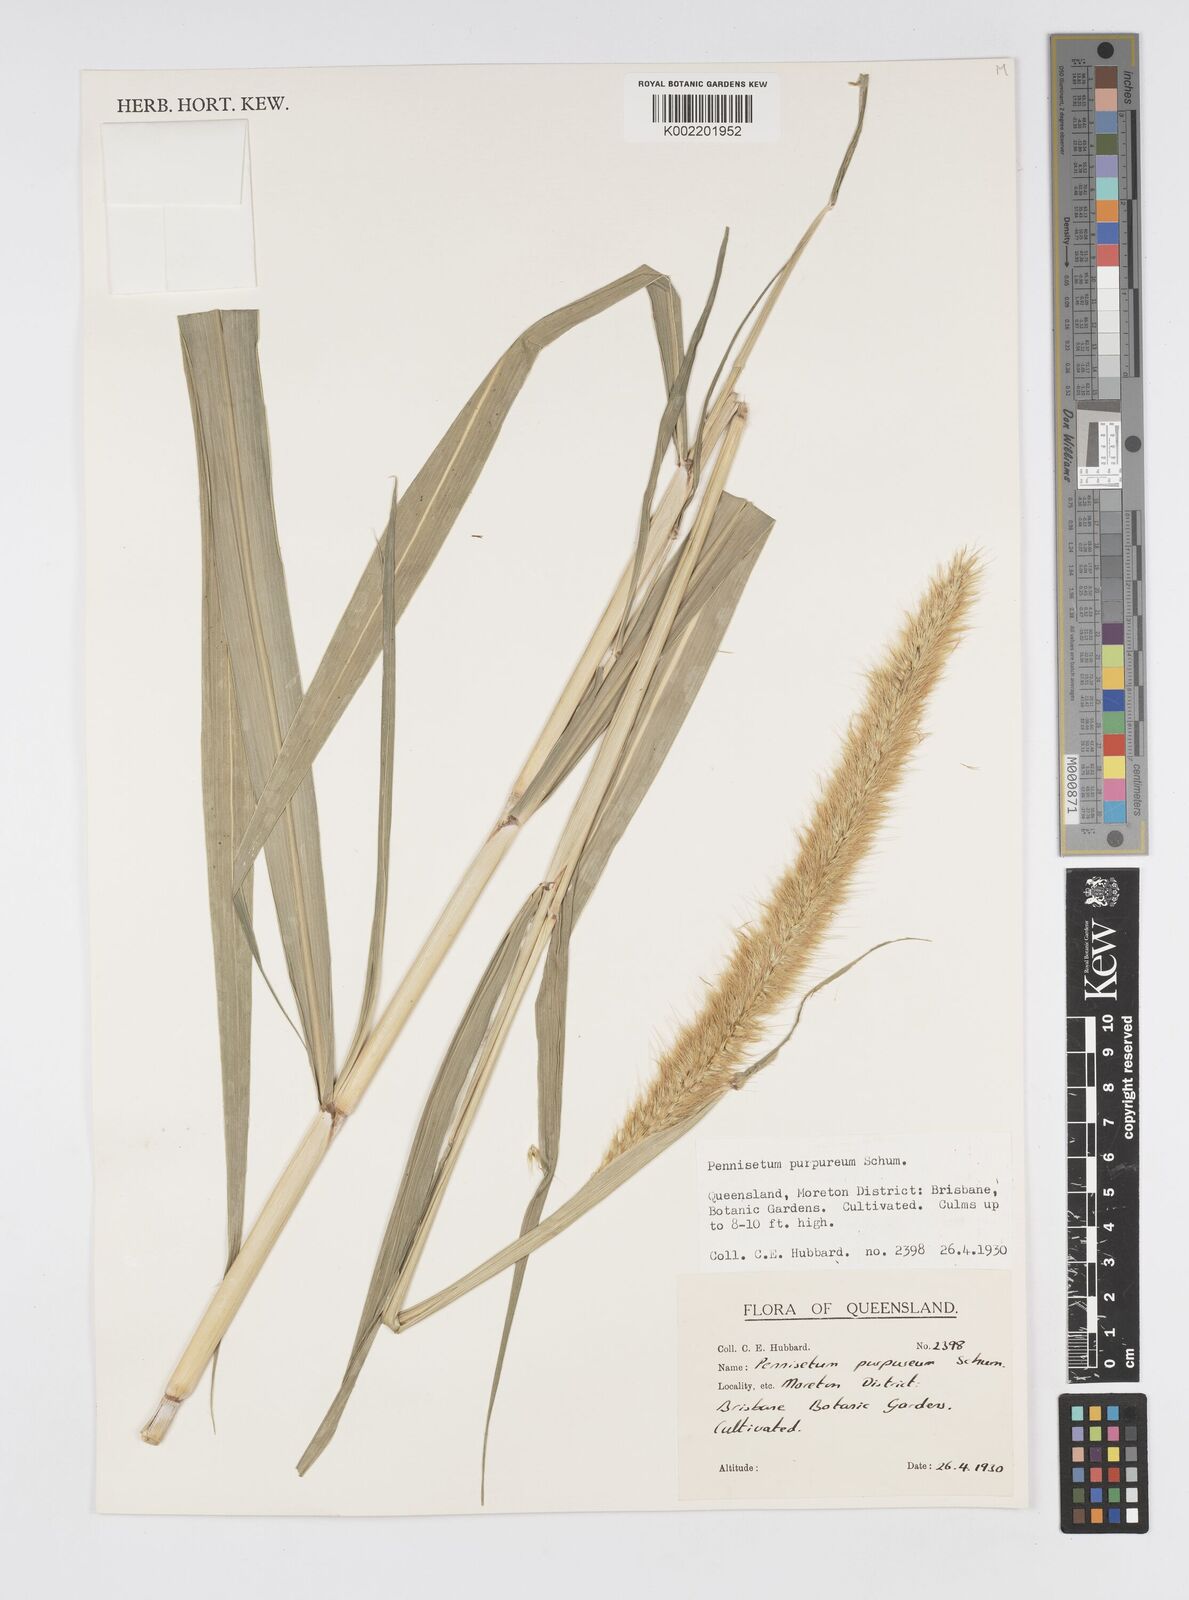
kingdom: Plantae
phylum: Tracheophyta
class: Liliopsida
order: Poales
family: Poaceae
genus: Cenchrus
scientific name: Cenchrus purpureus
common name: Elephant grass
